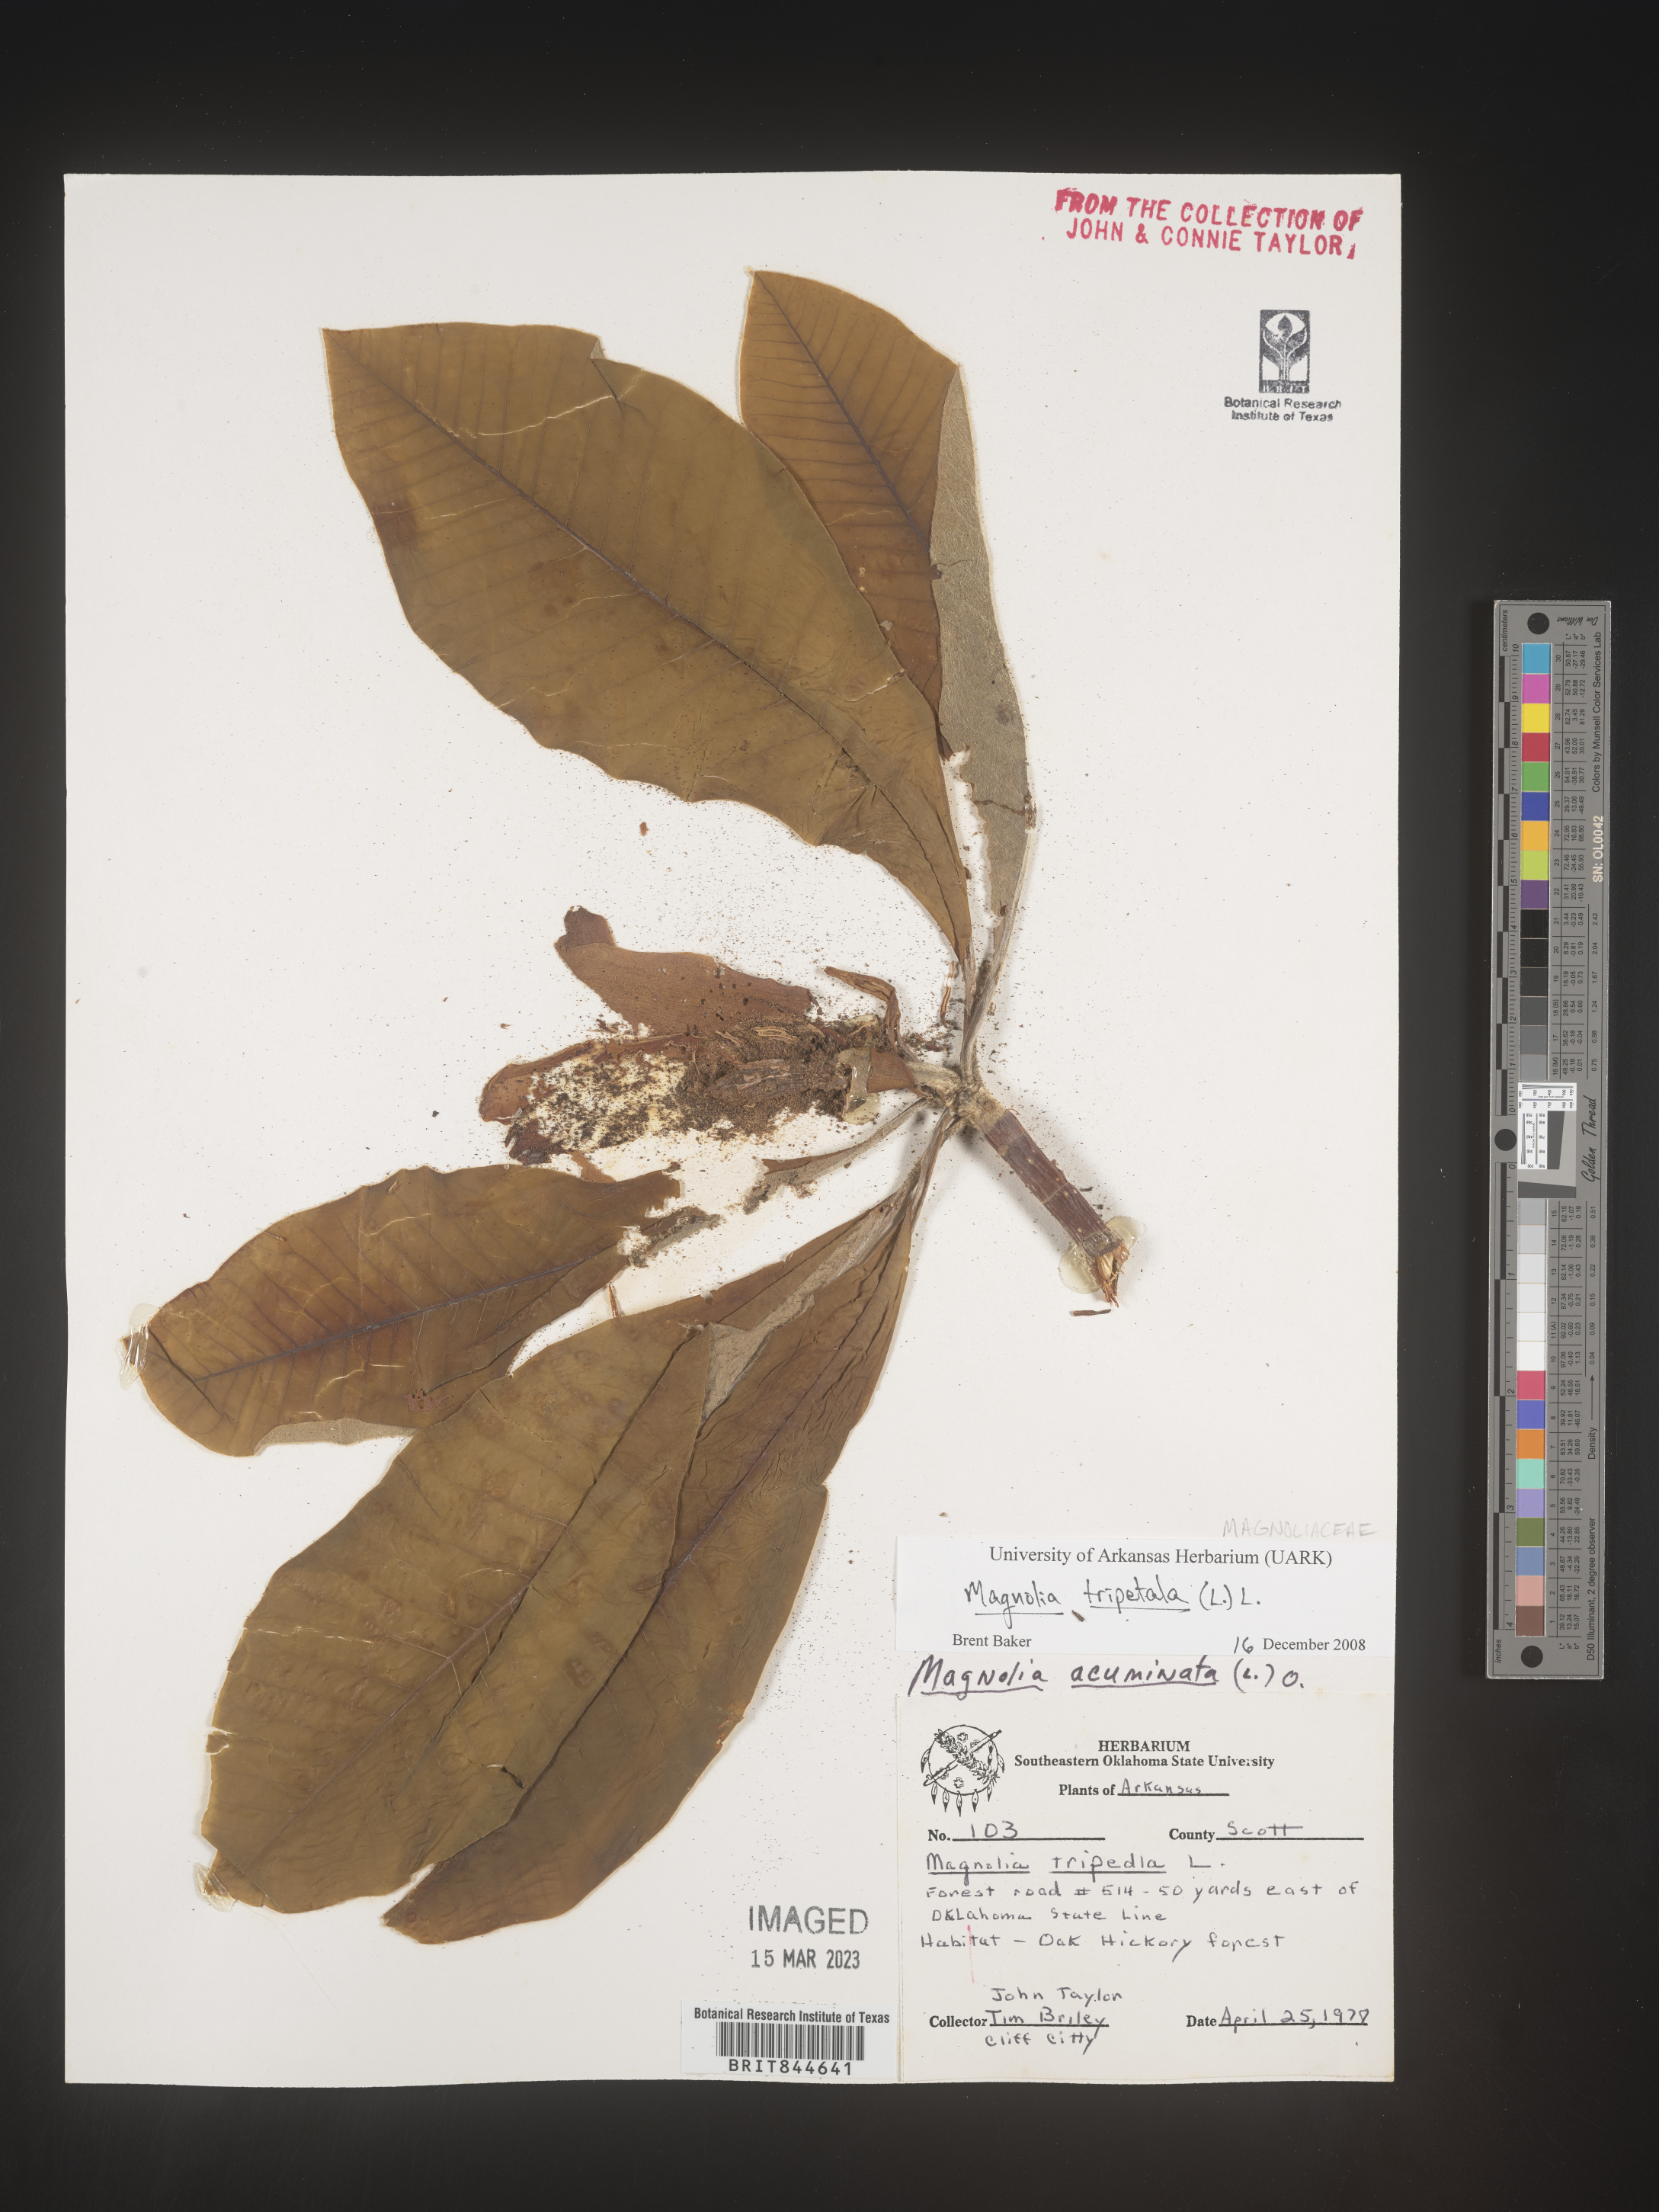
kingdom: Plantae
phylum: Tracheophyta
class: Magnoliopsida
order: Magnoliales
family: Magnoliaceae
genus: Magnolia
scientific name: Magnolia tripetala
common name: Umbrella magnolia
